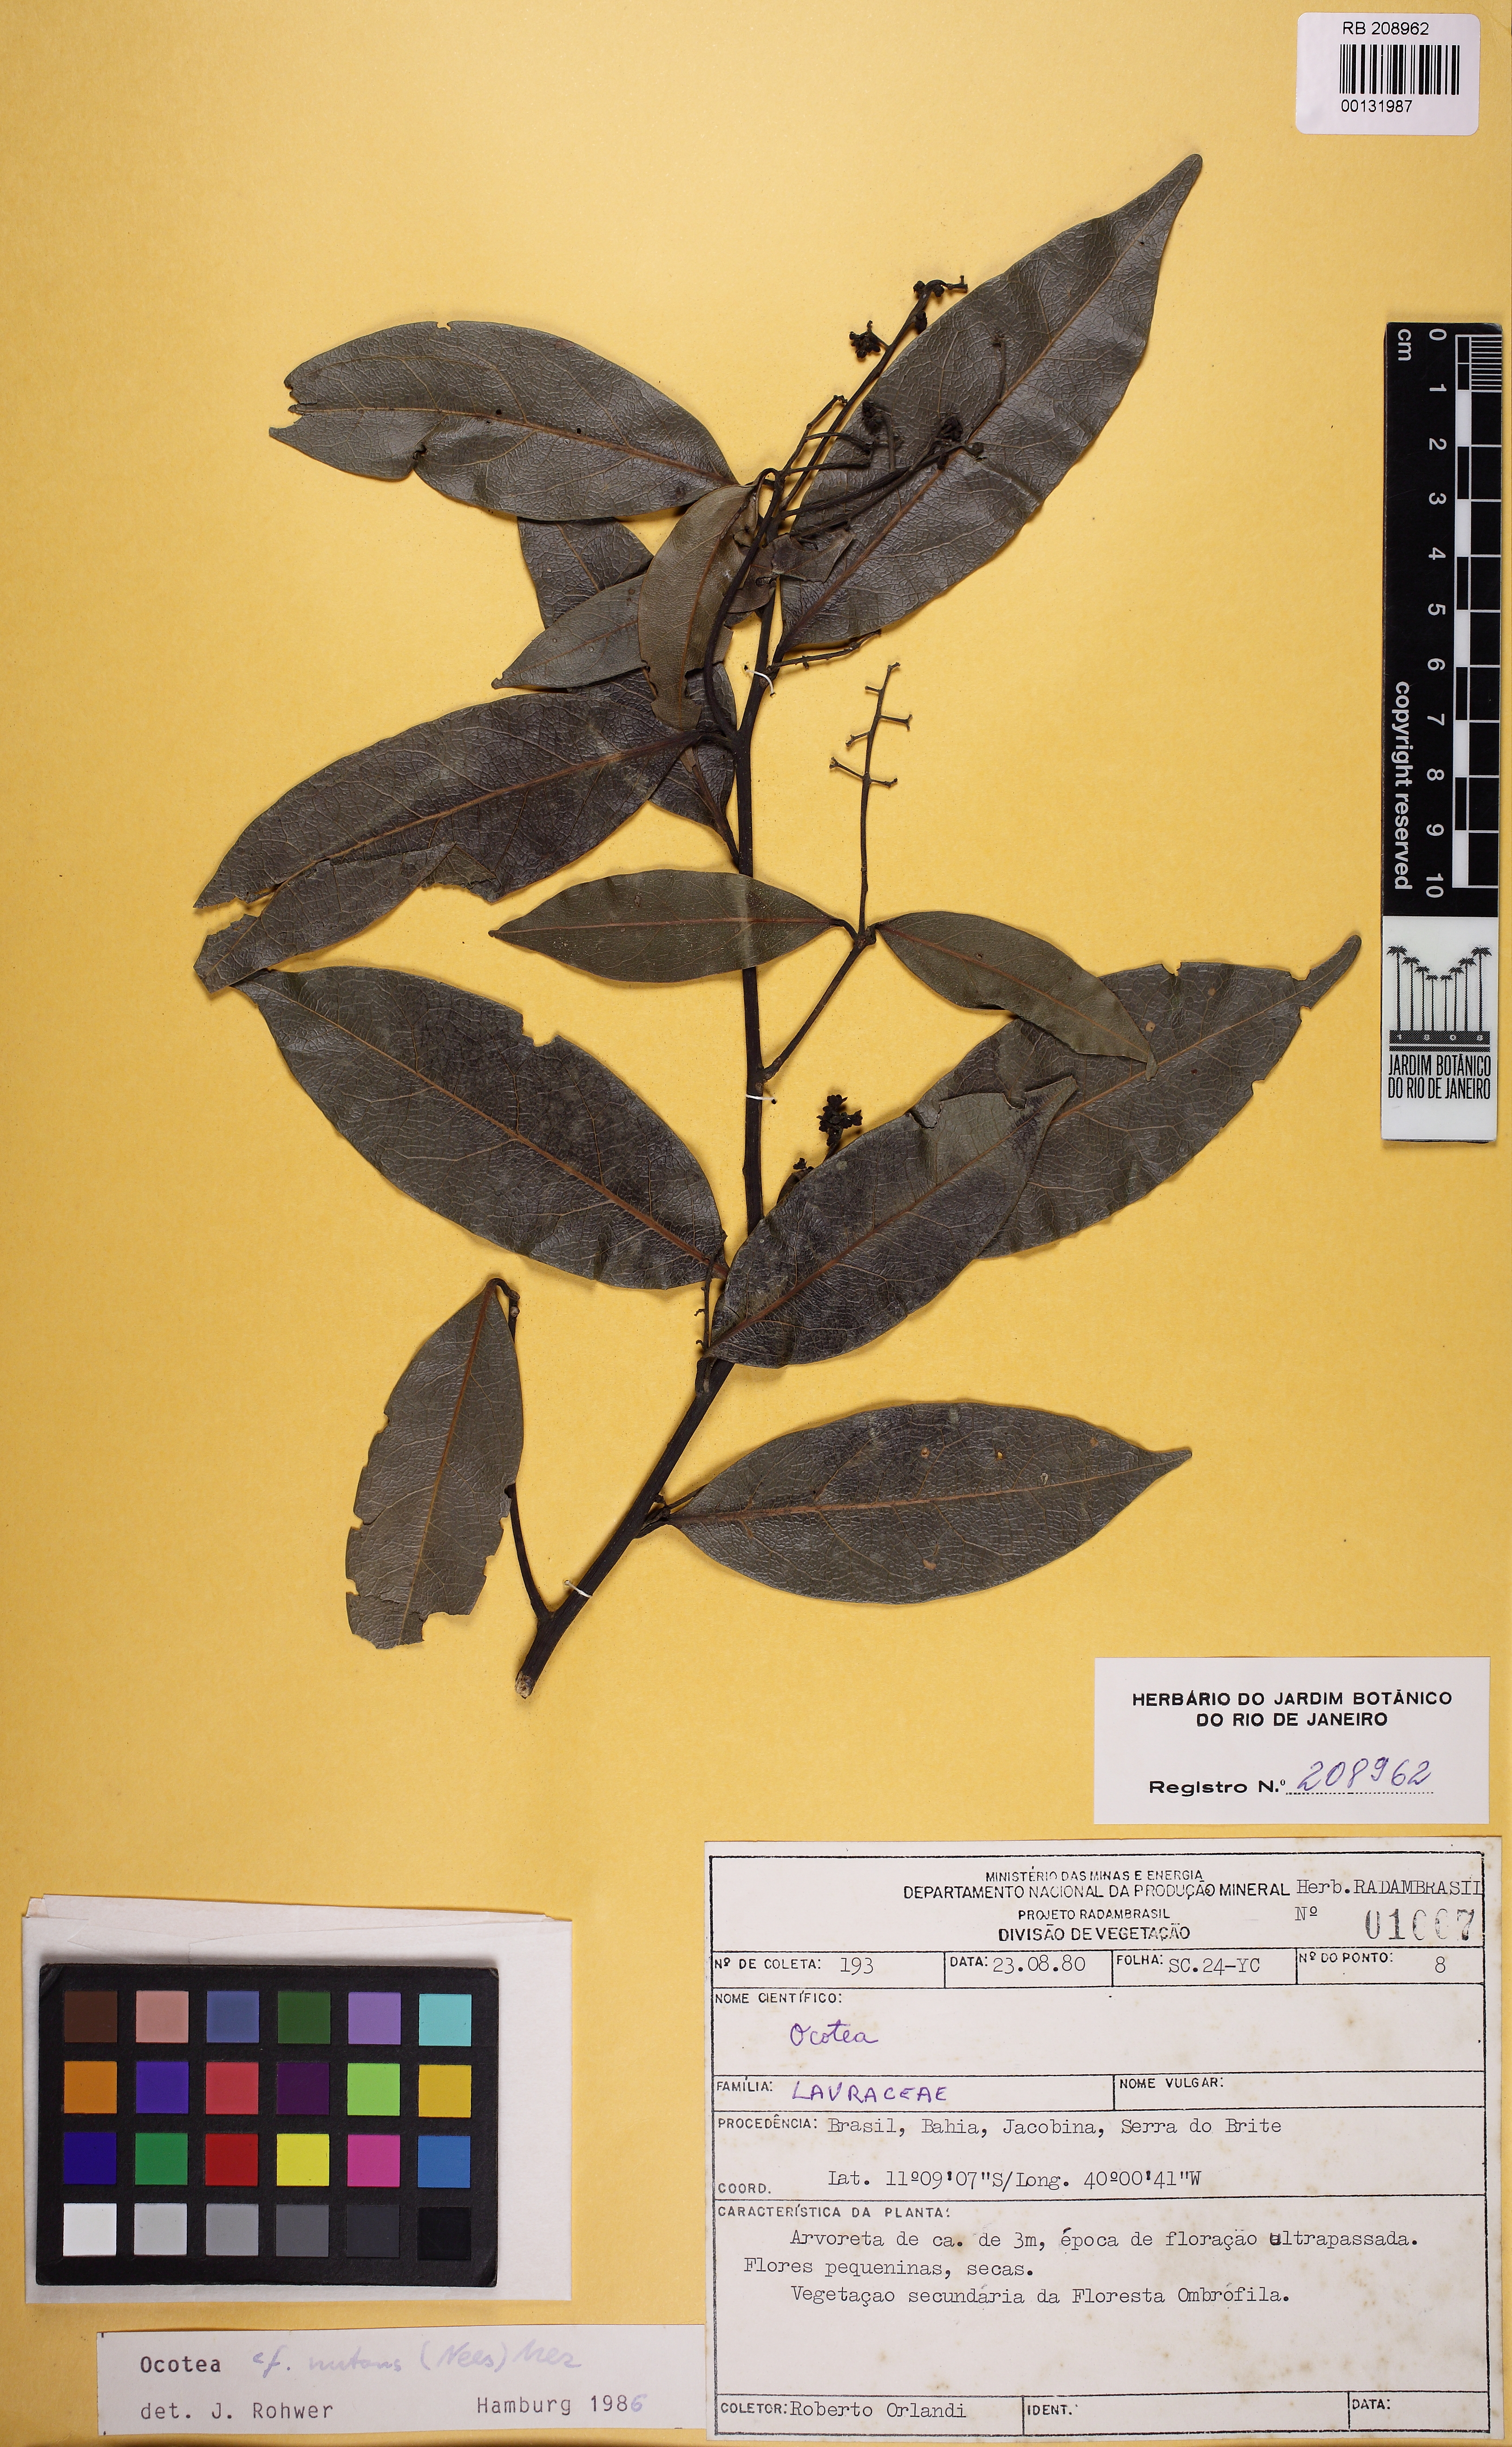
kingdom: Plantae
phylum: Tracheophyta
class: Magnoliopsida
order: Laurales
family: Lauraceae
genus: Ocotea
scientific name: Ocotea neesiana
